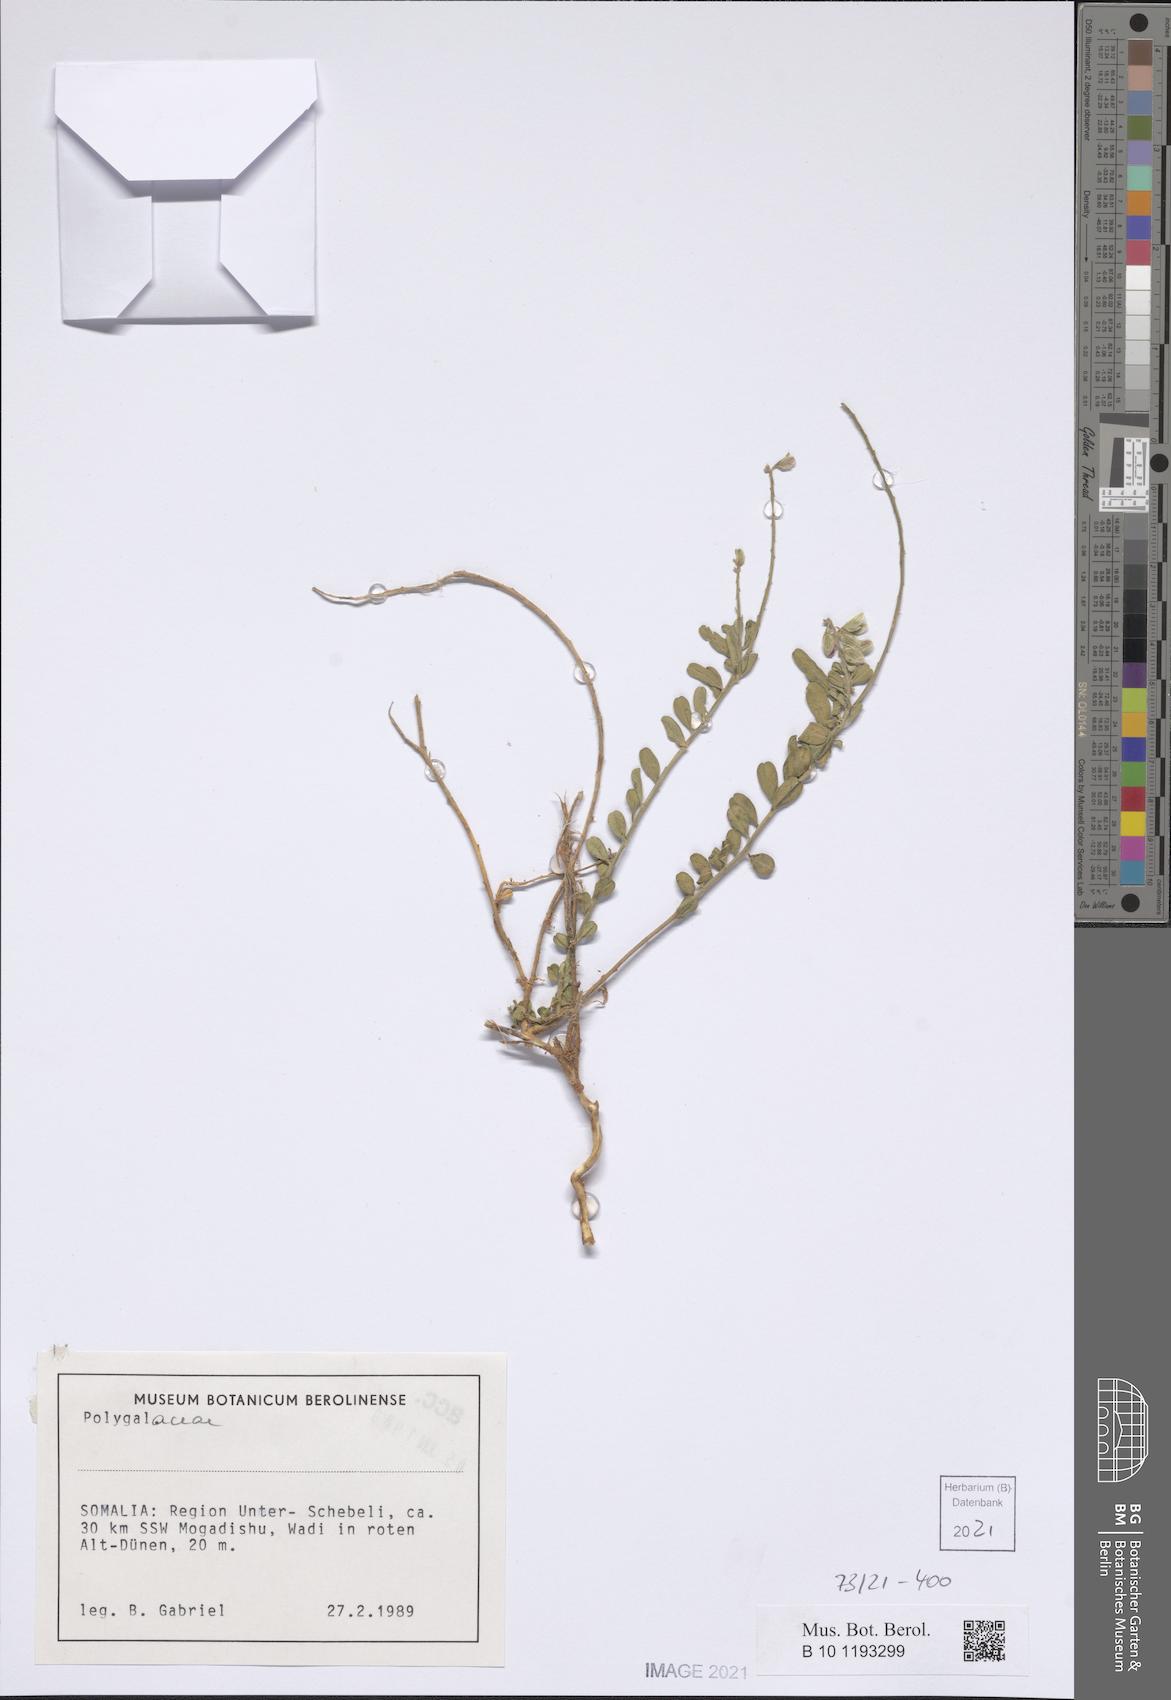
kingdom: Plantae
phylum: Tracheophyta
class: Magnoliopsida
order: Fabales
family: Polygalaceae
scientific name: Polygalaceae
